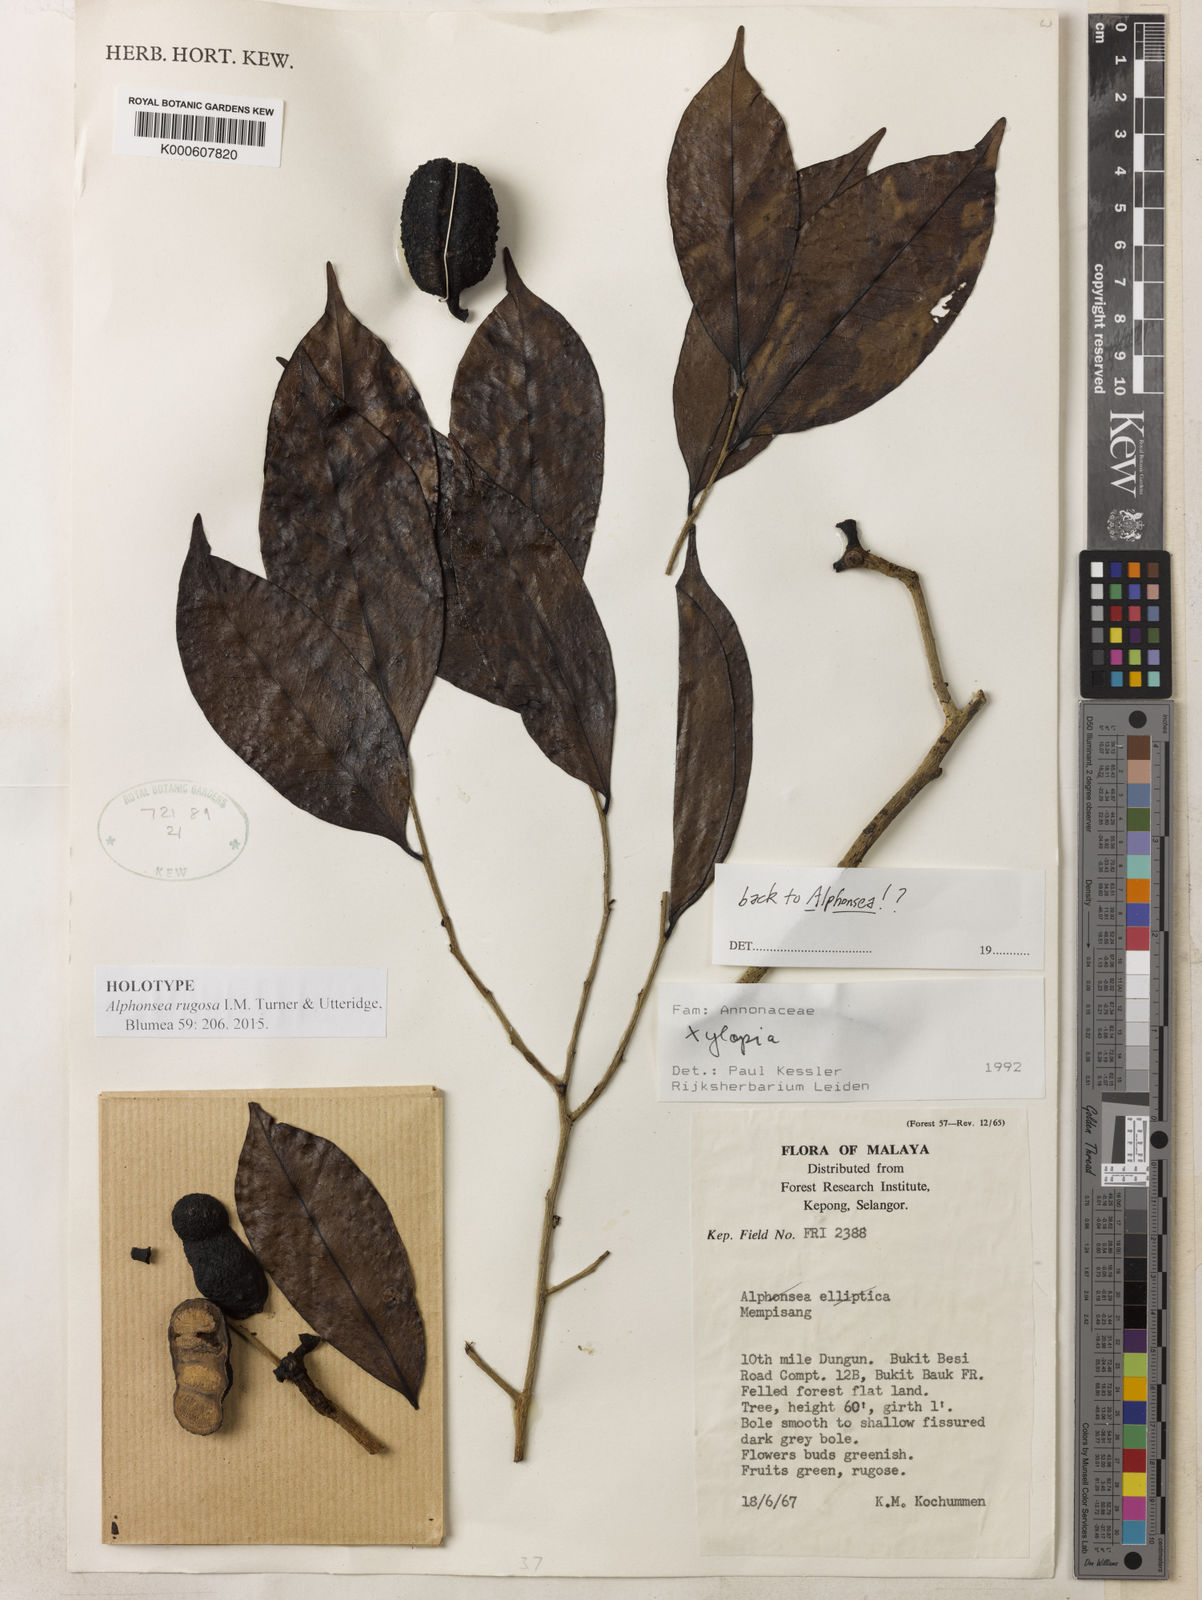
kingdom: Plantae
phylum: Tracheophyta
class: Magnoliopsida
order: Magnoliales
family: Annonaceae
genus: Alphonsea
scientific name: Alphonsea rugosa
